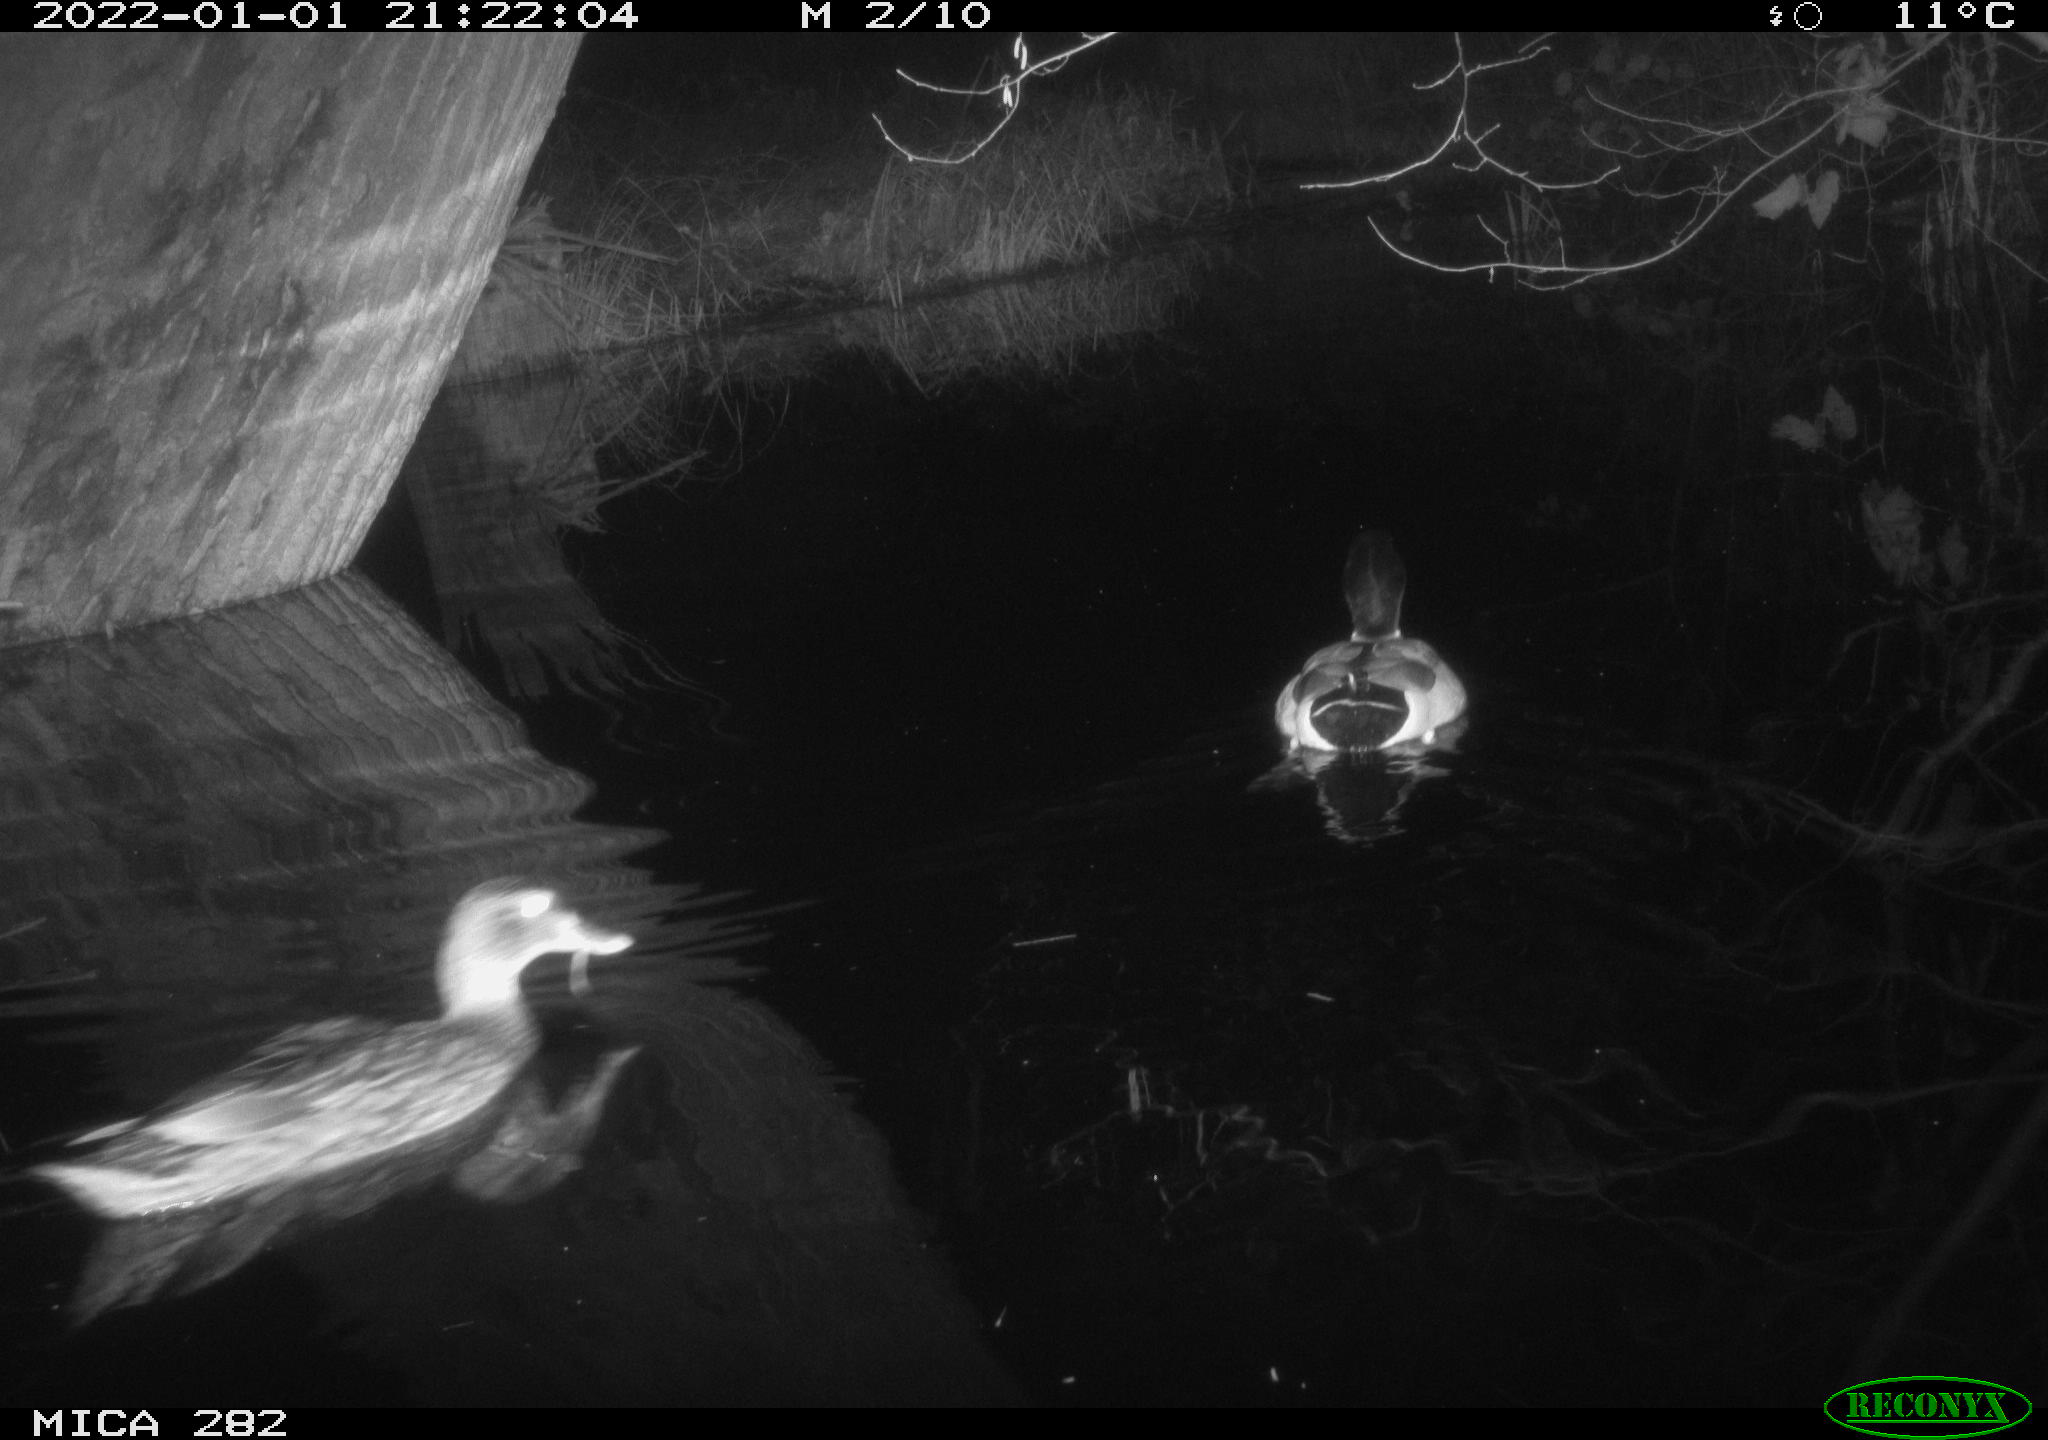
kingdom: Animalia
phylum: Chordata
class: Aves
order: Anseriformes
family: Anatidae
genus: Anas
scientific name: Anas platyrhynchos
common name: Mallard
